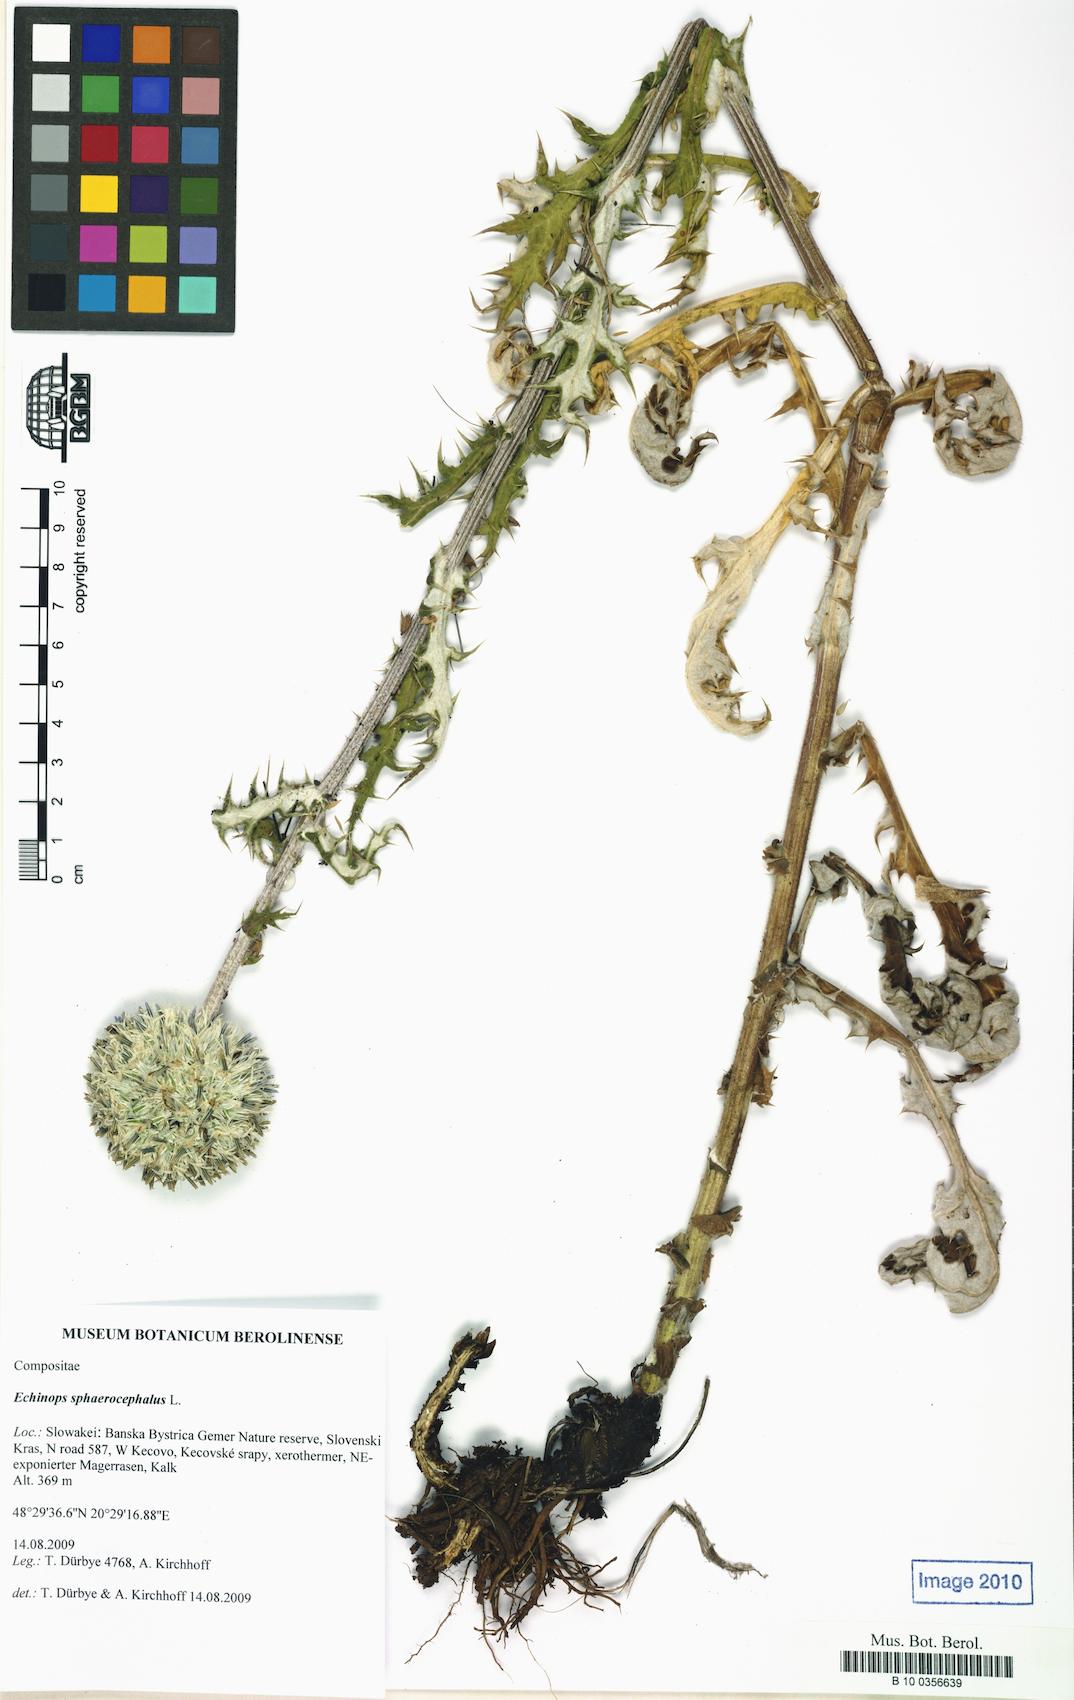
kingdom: Plantae
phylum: Tracheophyta
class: Magnoliopsida
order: Asterales
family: Asteraceae
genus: Echinops
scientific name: Echinops sphaerocephalus
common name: Glandular globe-thistle
